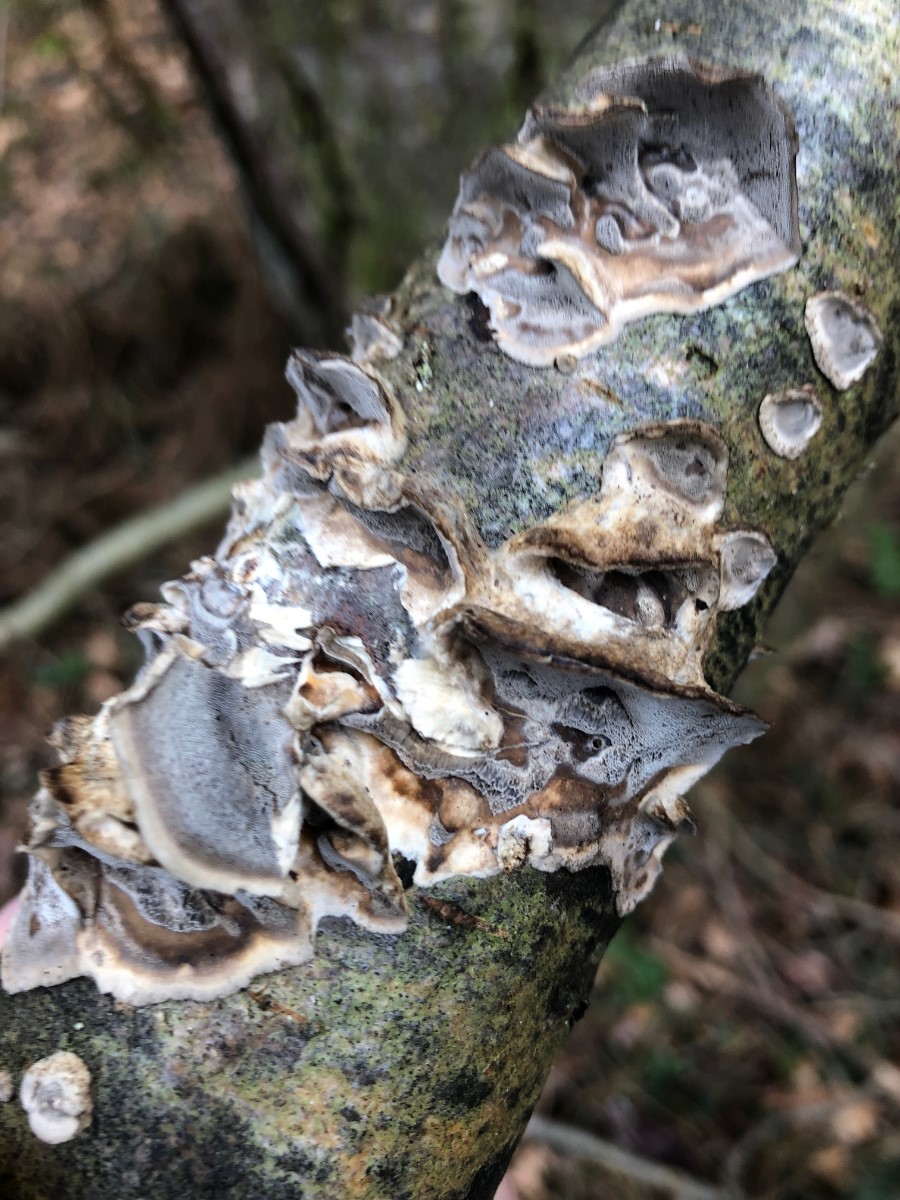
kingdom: Fungi
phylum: Basidiomycota
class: Agaricomycetes
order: Polyporales
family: Phanerochaetaceae
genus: Bjerkandera
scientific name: Bjerkandera adusta
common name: sveden sodporesvamp
